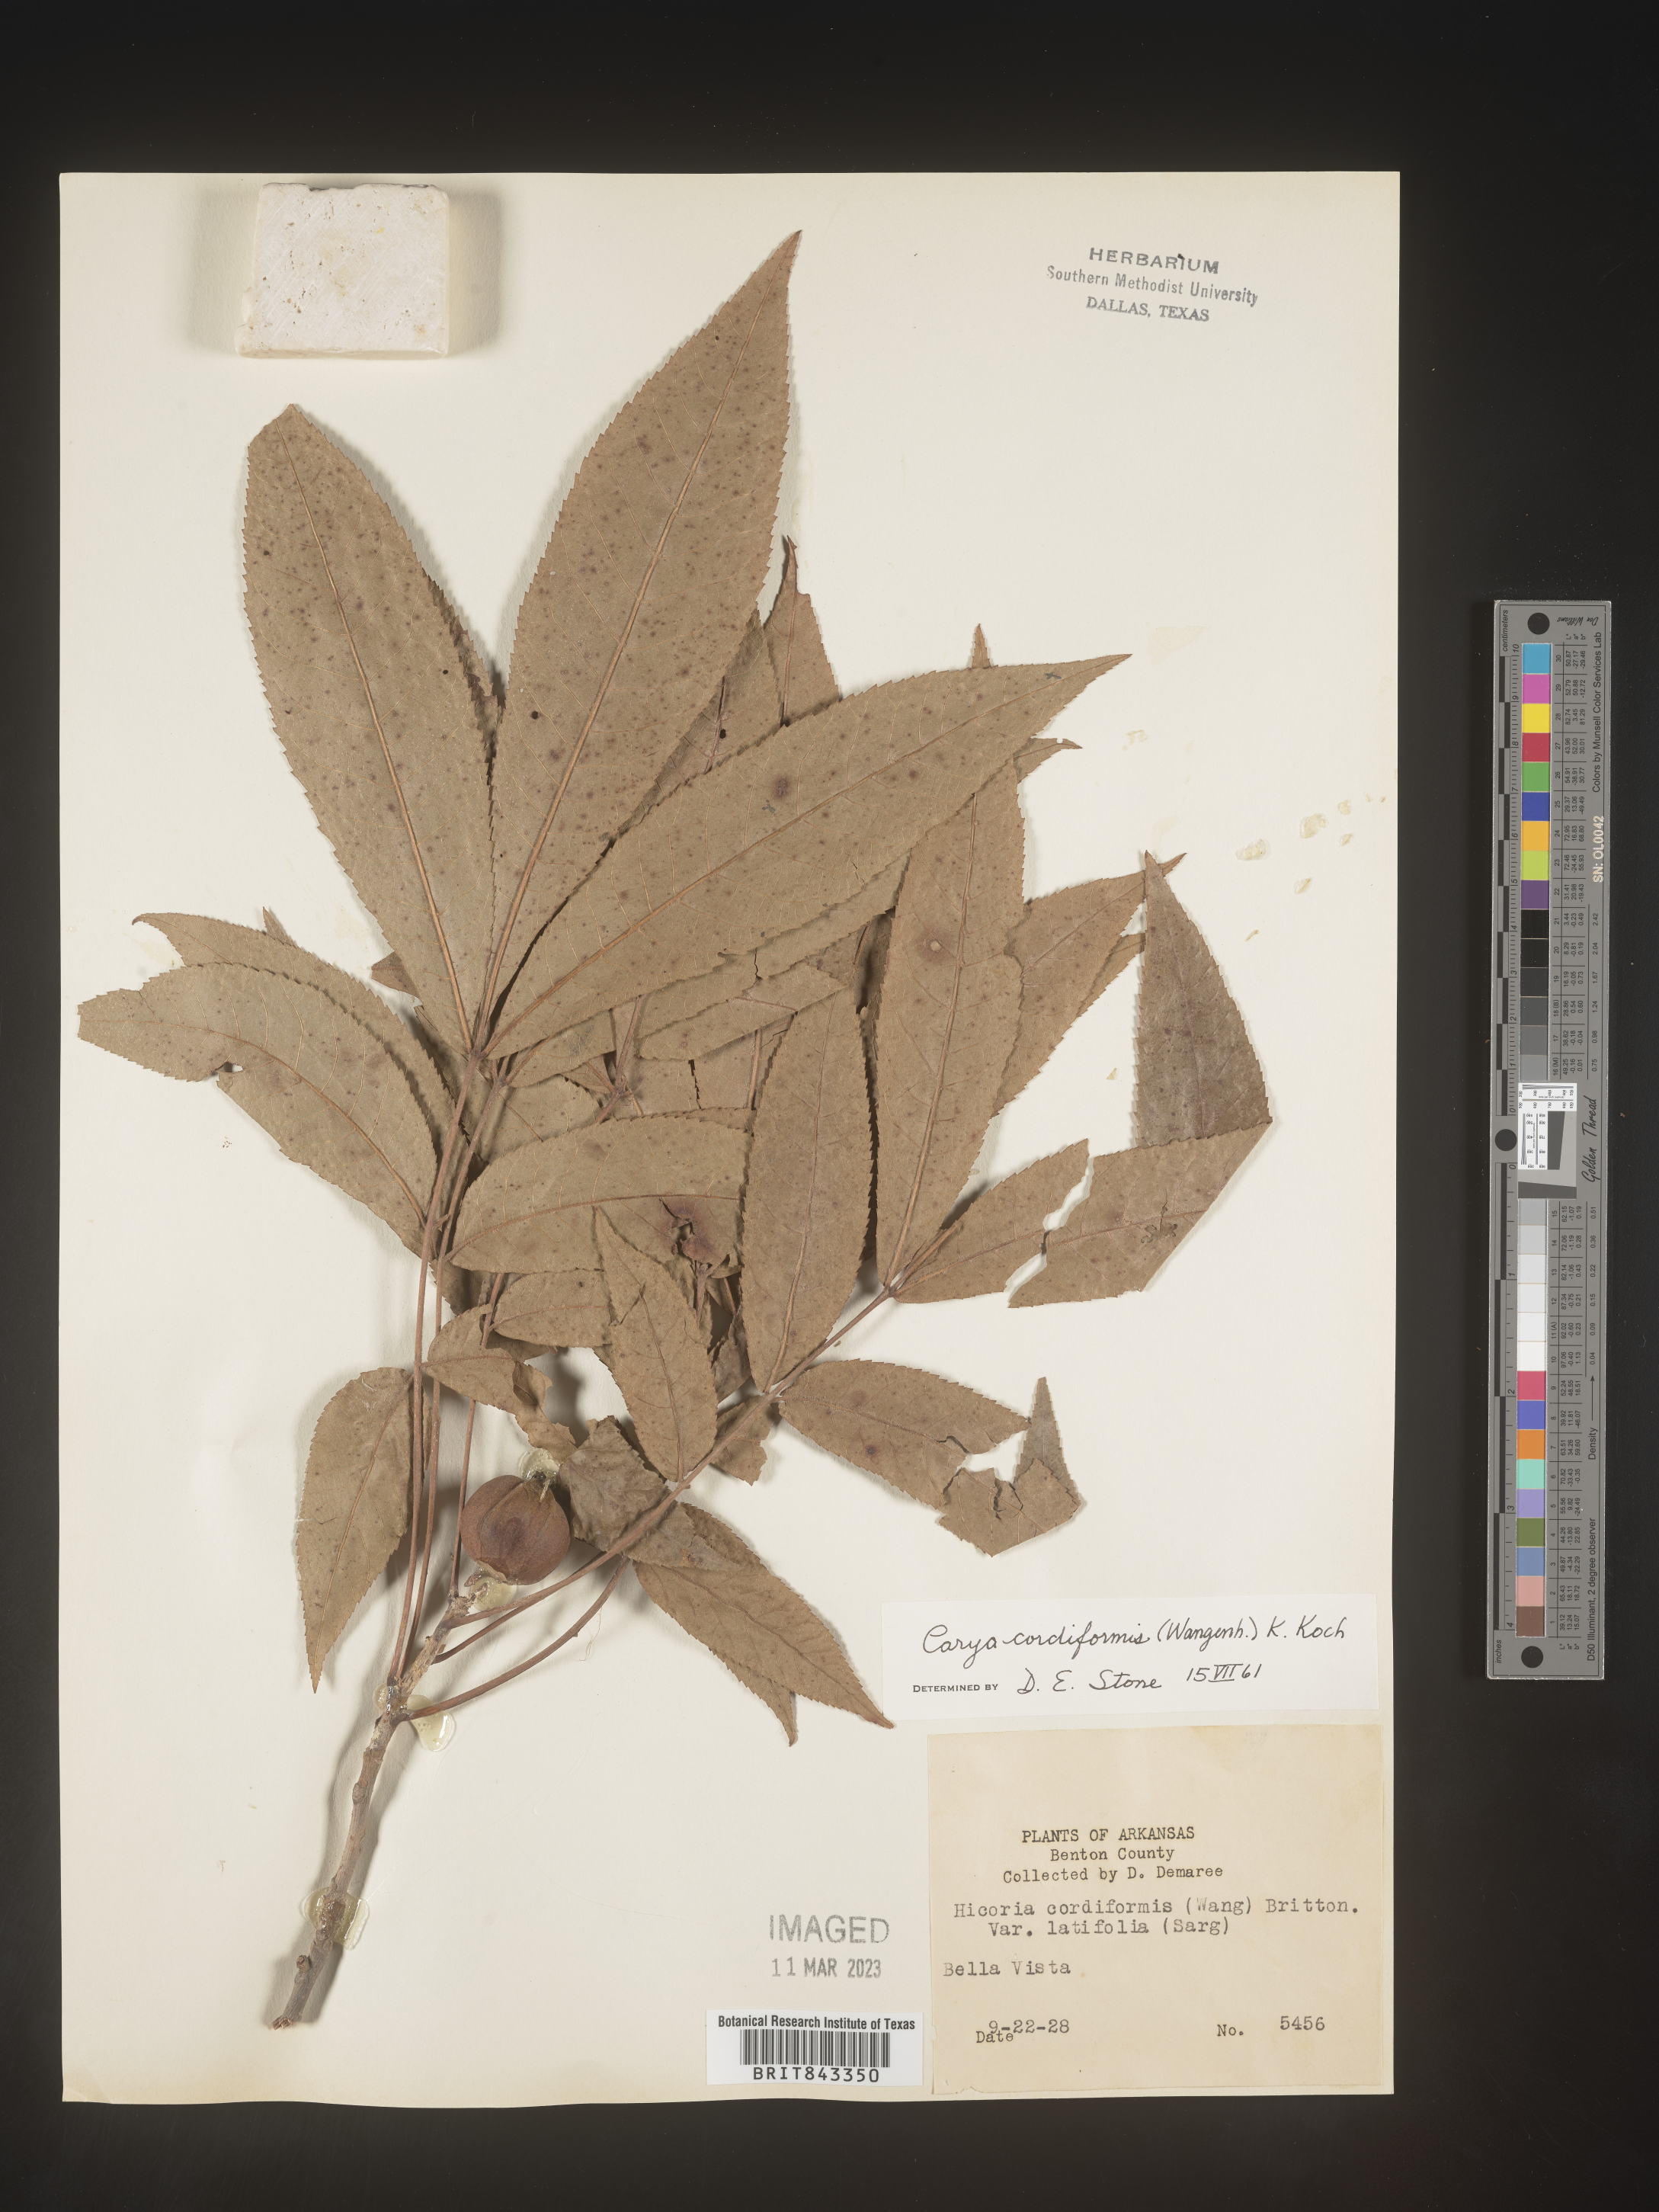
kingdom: Plantae
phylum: Tracheophyta
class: Magnoliopsida
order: Fagales
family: Juglandaceae
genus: Carya
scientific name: Carya cordiformis
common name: Bitternut hickory
